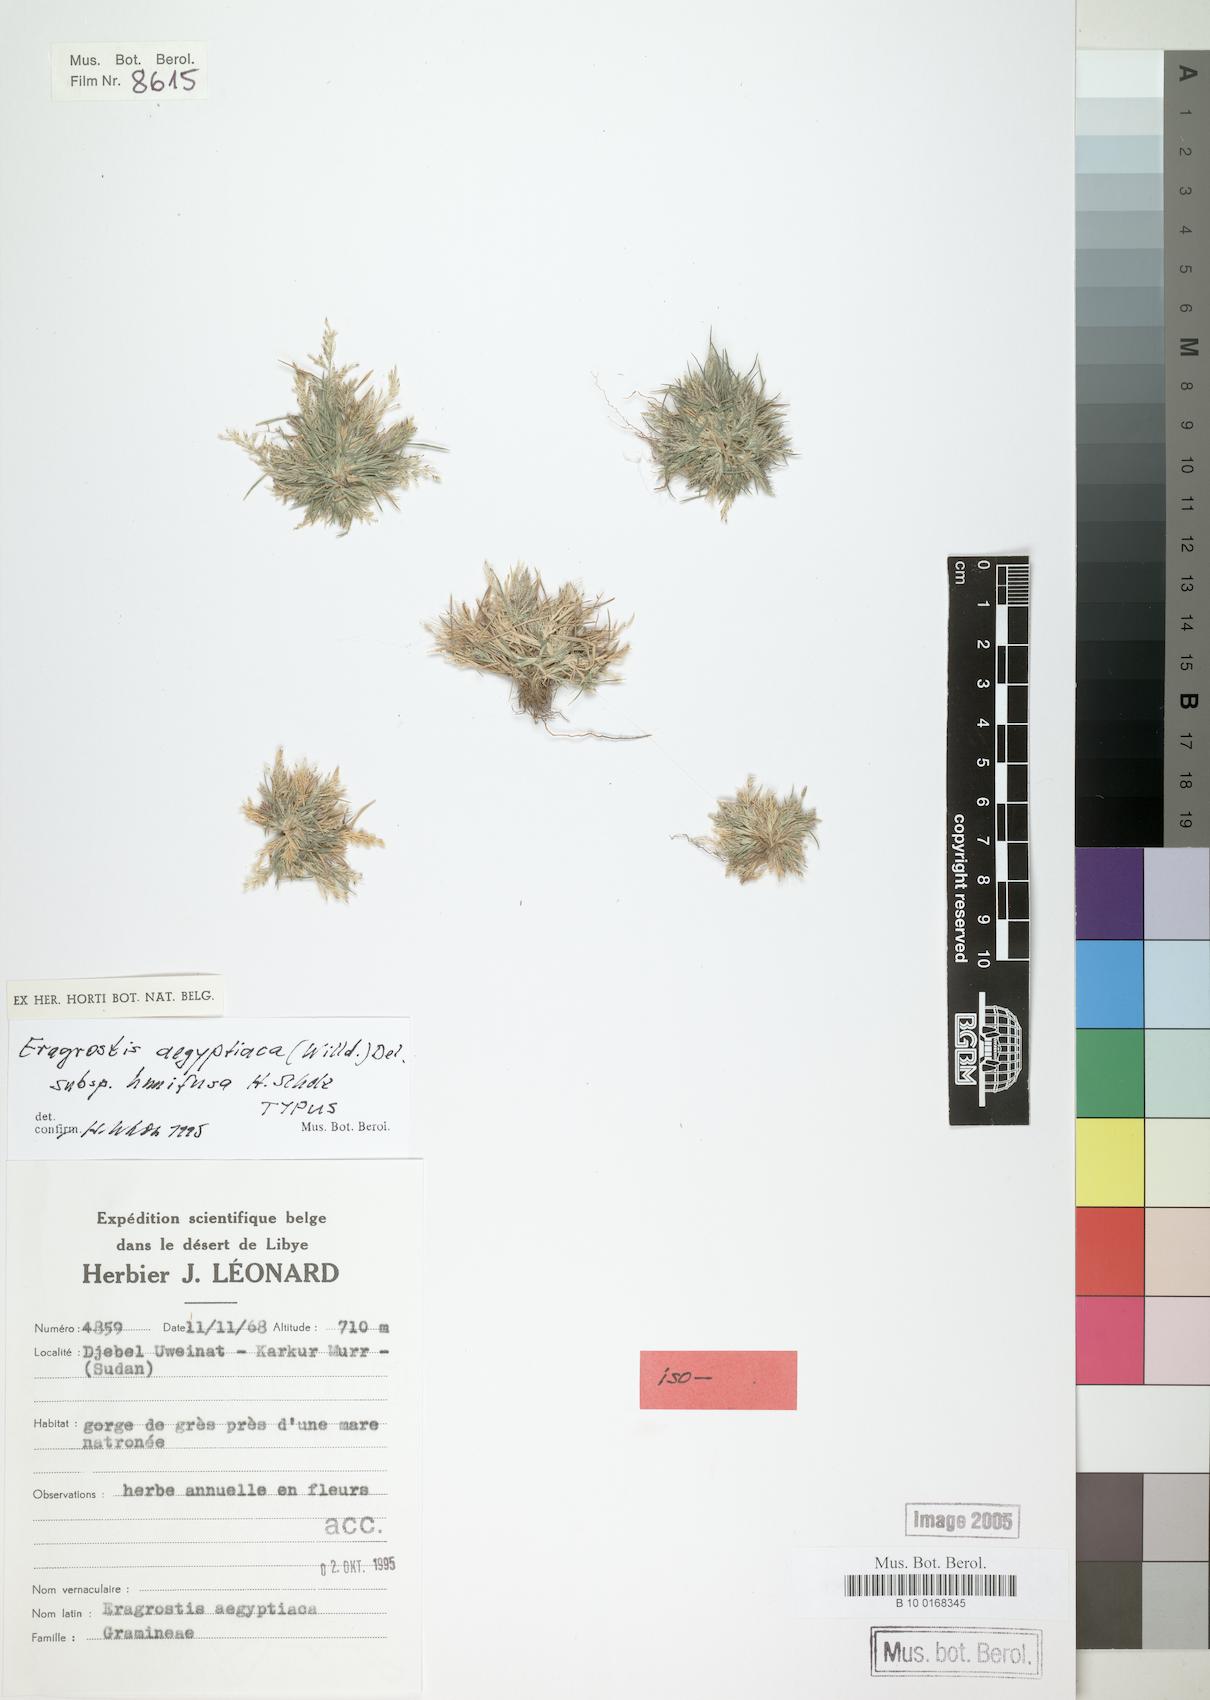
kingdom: Plantae
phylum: Tracheophyta
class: Liliopsida
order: Poales
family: Poaceae
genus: Eragrostis
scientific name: Eragrostis aegyptiaca
